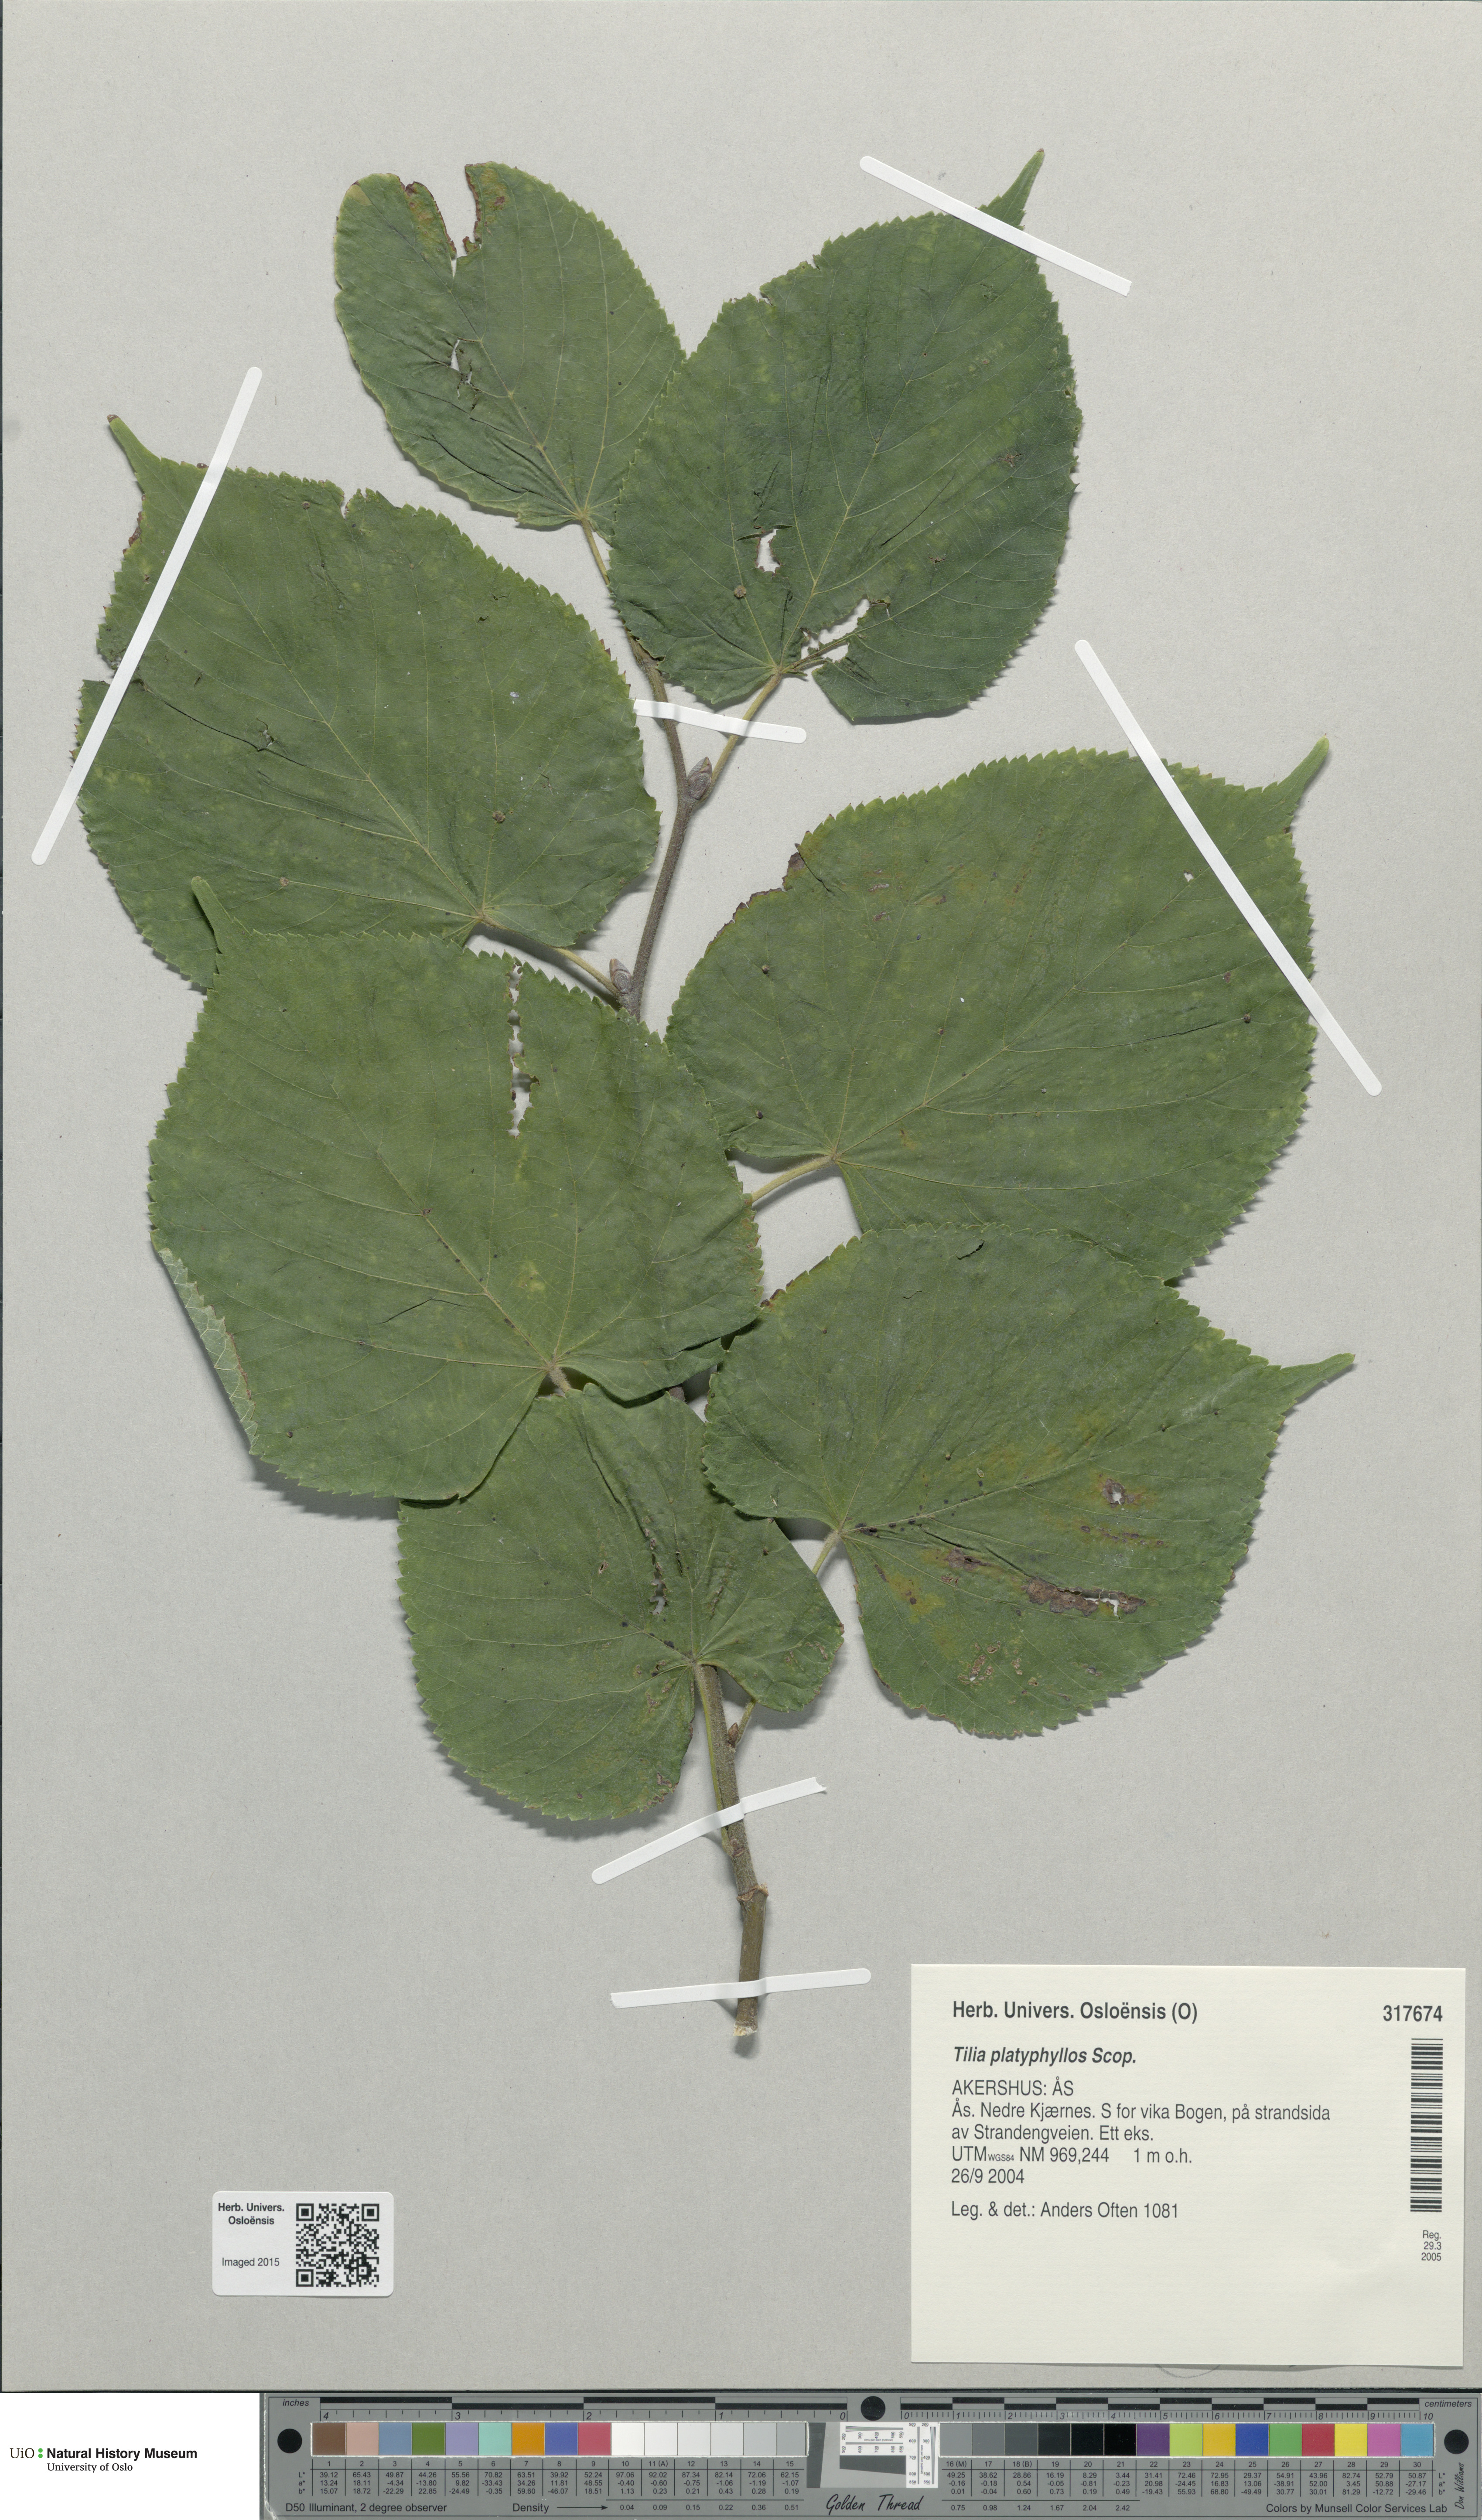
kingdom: Plantae
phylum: Tracheophyta
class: Magnoliopsida
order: Malvales
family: Malvaceae
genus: Tilia
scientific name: Tilia platyphyllos
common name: Large-leaved lime
